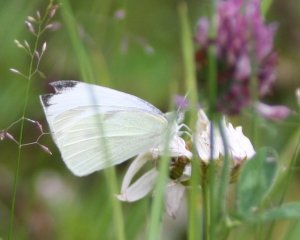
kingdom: Animalia
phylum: Arthropoda
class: Insecta
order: Lepidoptera
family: Pieridae
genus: Pieris
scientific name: Pieris rapae
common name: Cabbage White
